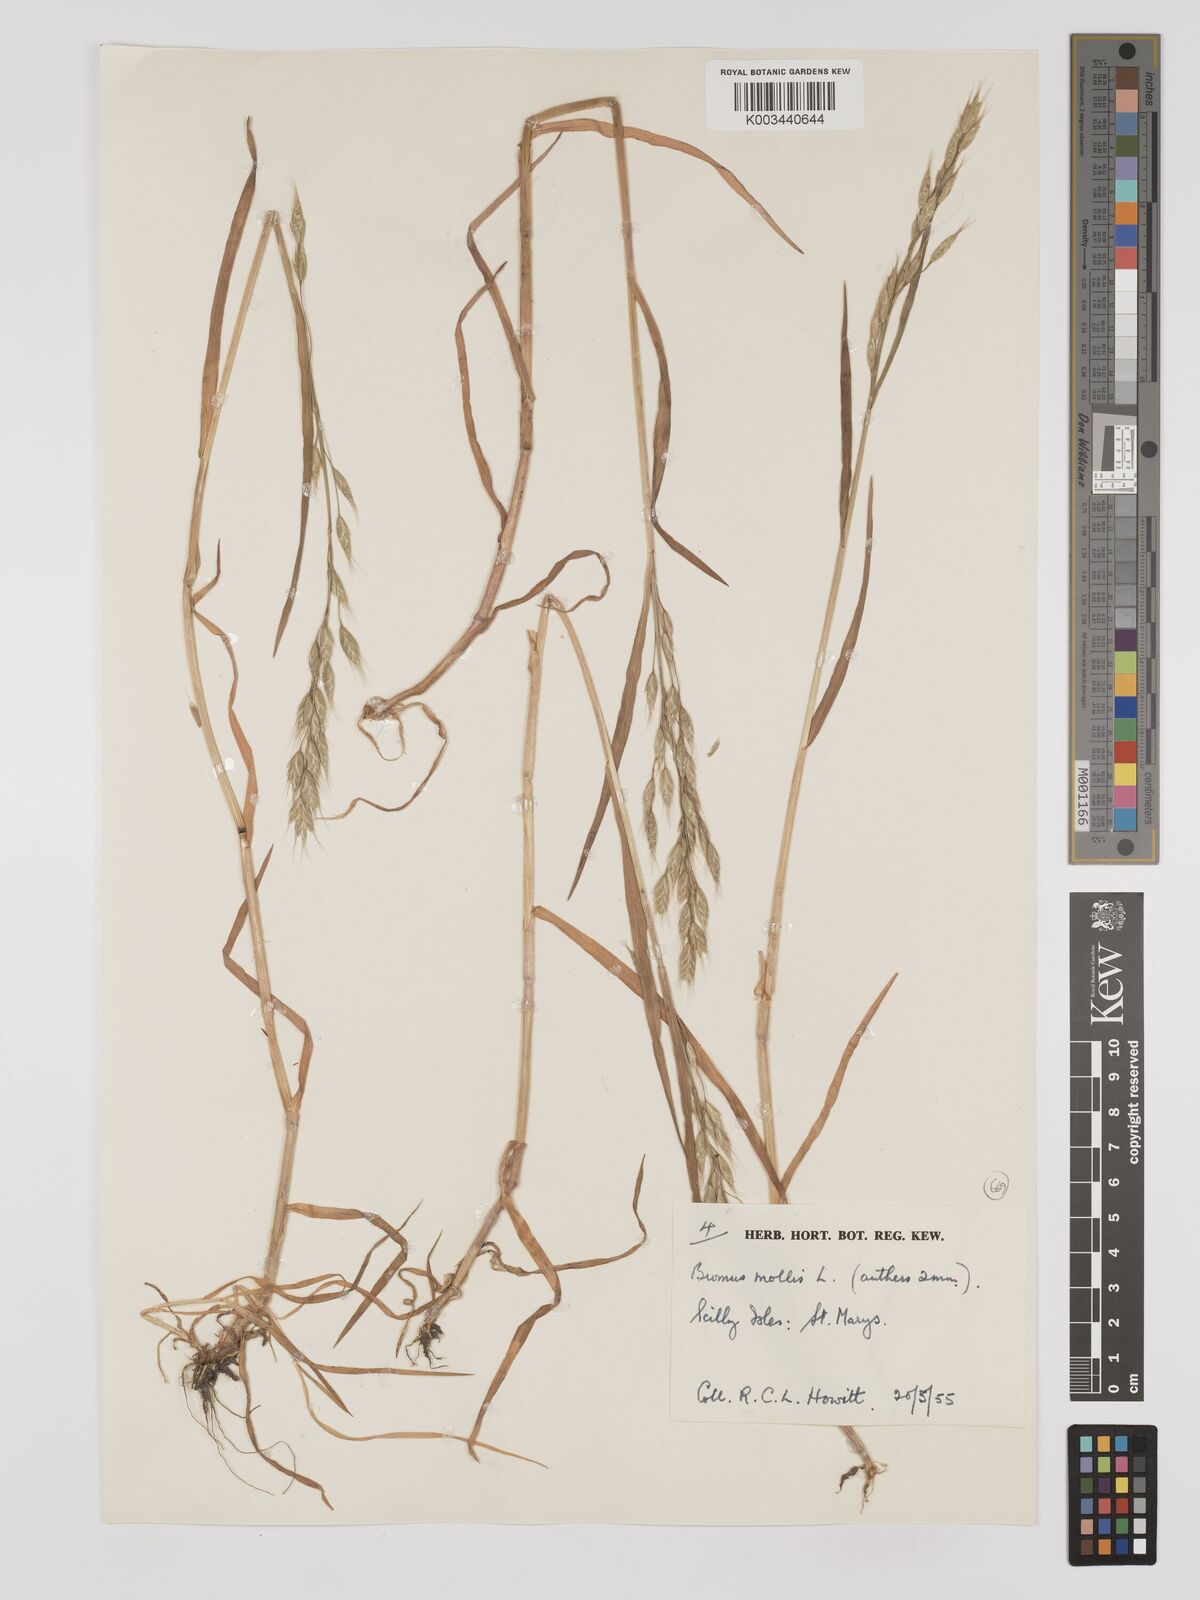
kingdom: Plantae
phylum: Tracheophyta
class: Liliopsida
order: Poales
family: Poaceae
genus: Bromus
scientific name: Bromus hordeaceus
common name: Soft brome
